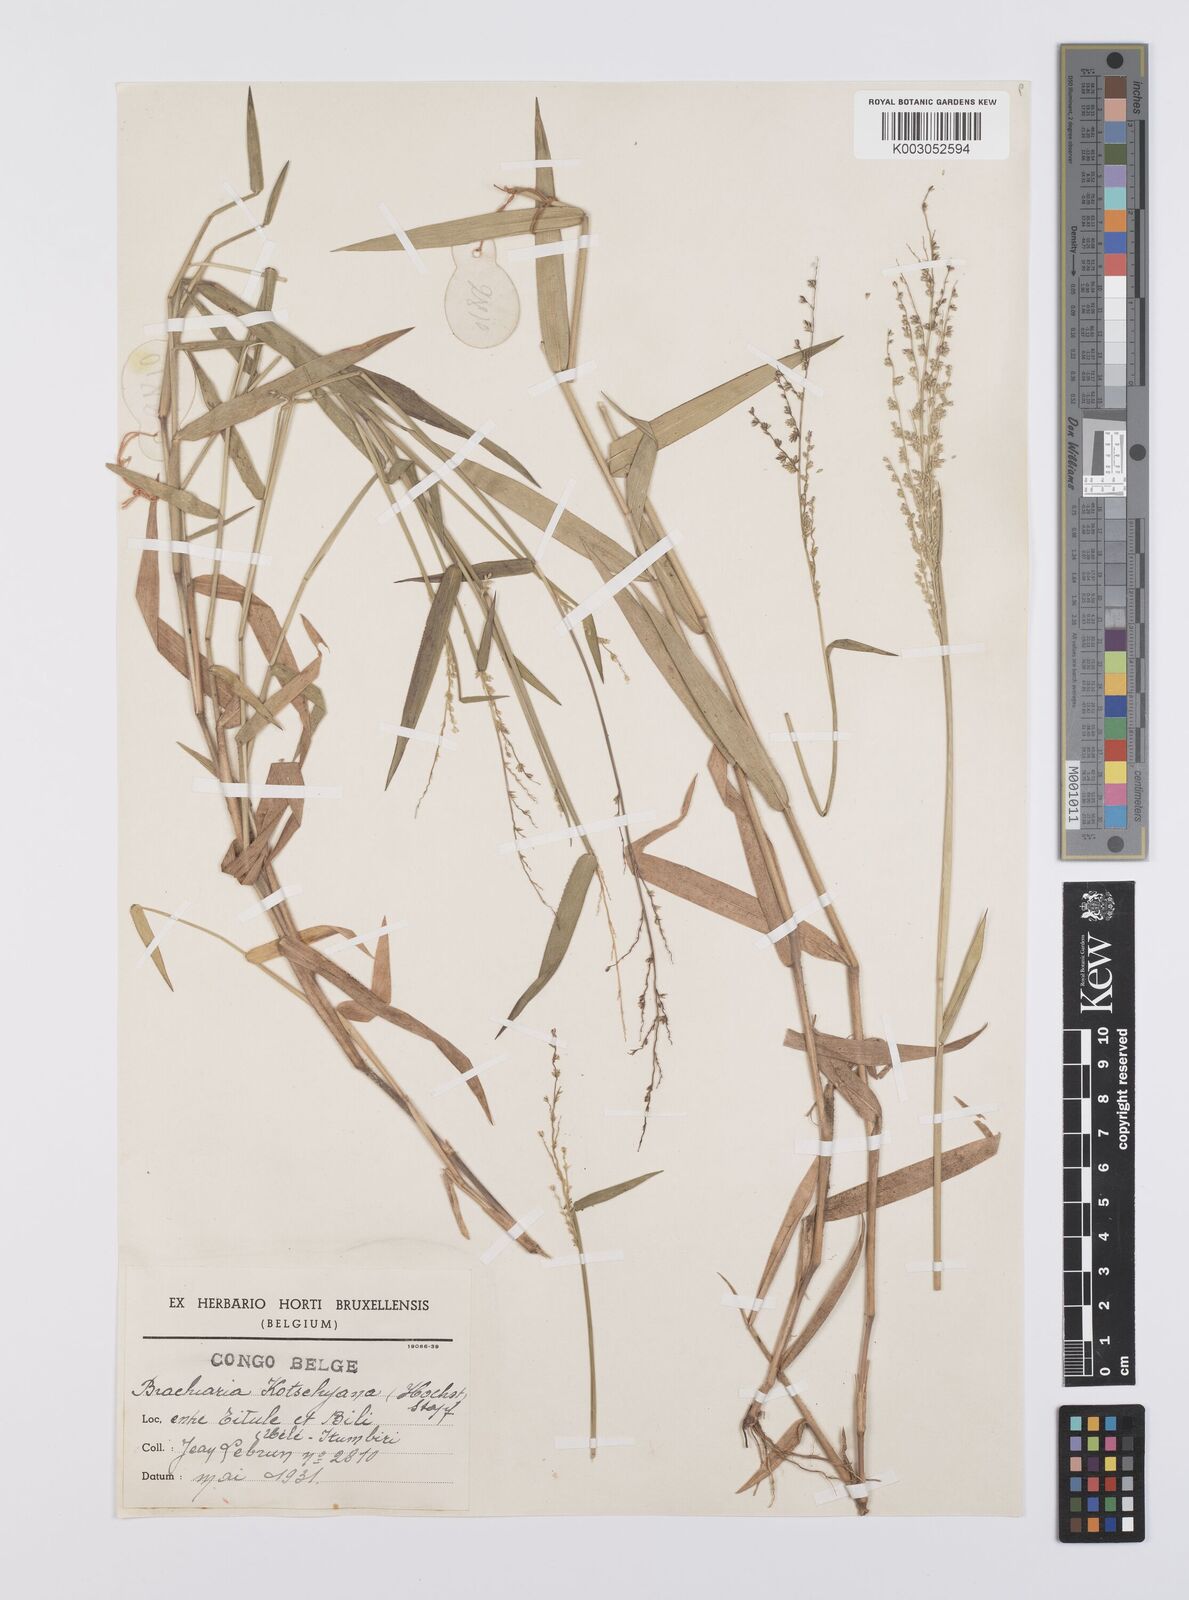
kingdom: Plantae
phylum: Tracheophyta
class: Liliopsida
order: Poales
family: Poaceae
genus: Urochloa
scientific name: Urochloa comata
